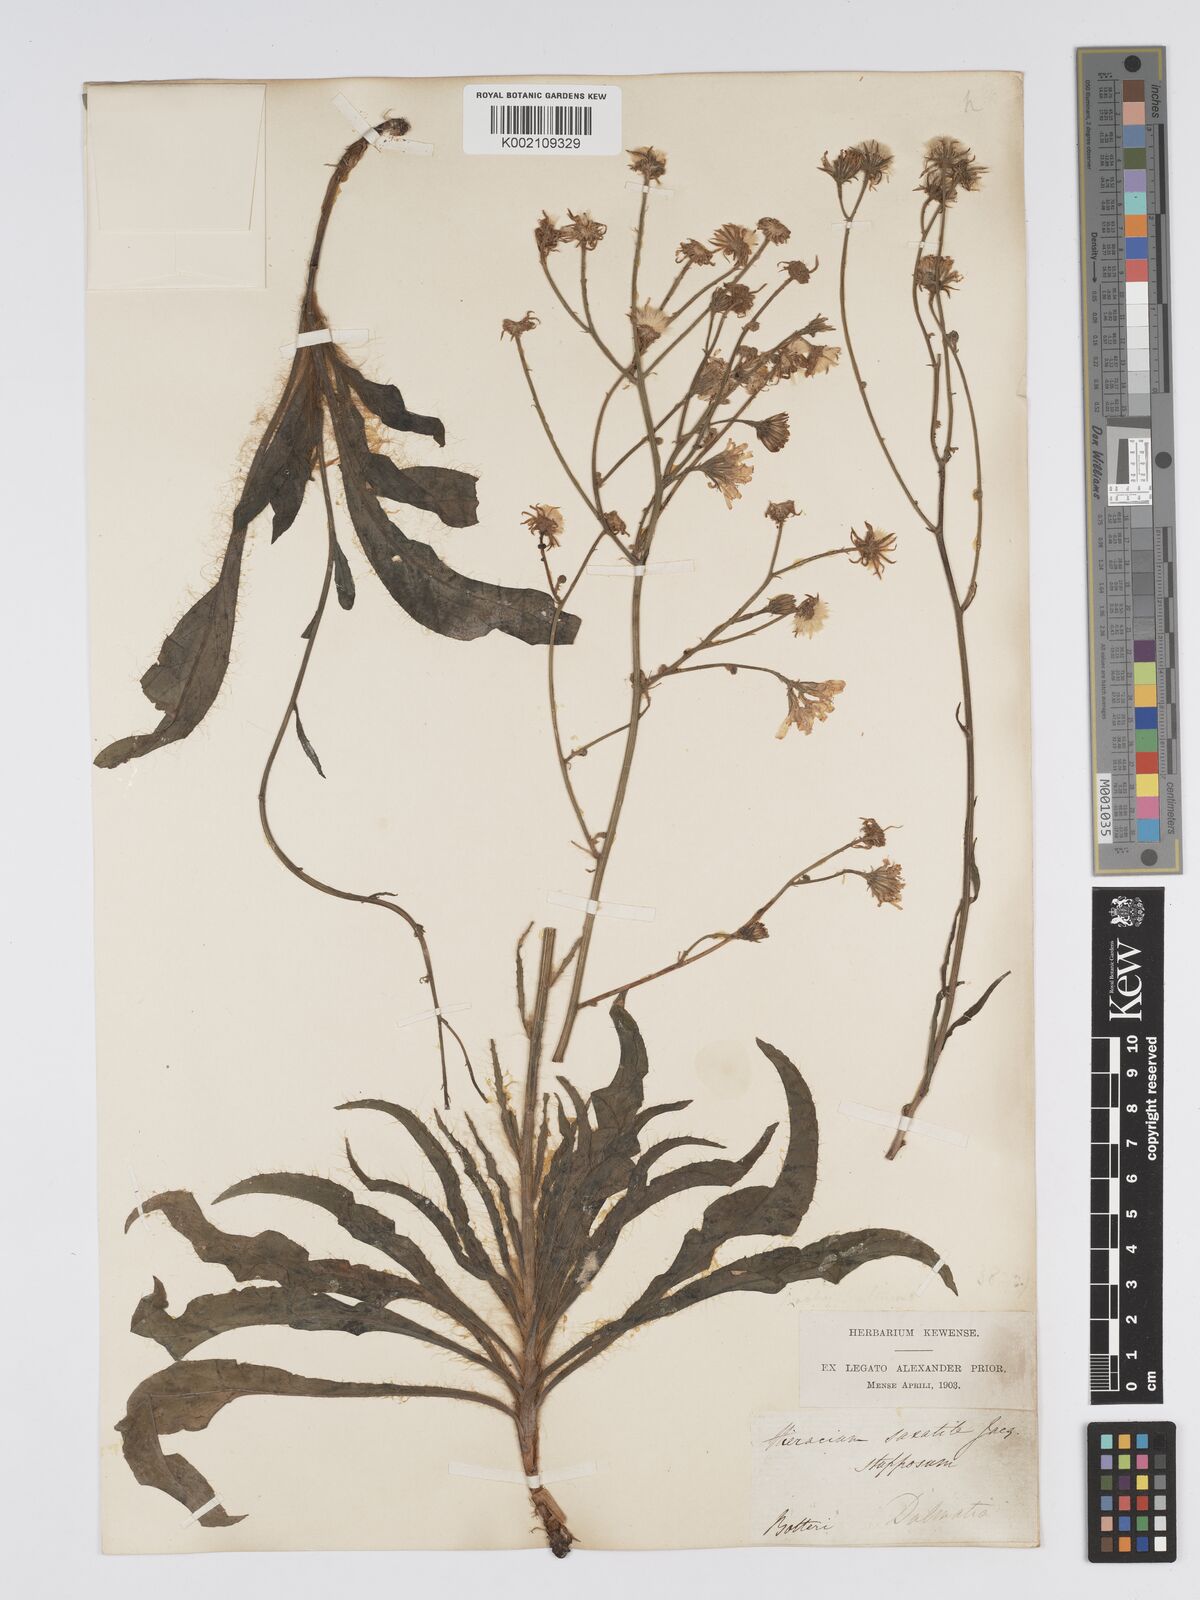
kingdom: Plantae
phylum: Tracheophyta
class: Magnoliopsida
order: Asterales
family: Asteraceae
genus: Hieracium
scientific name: Hieracium heterogynum
